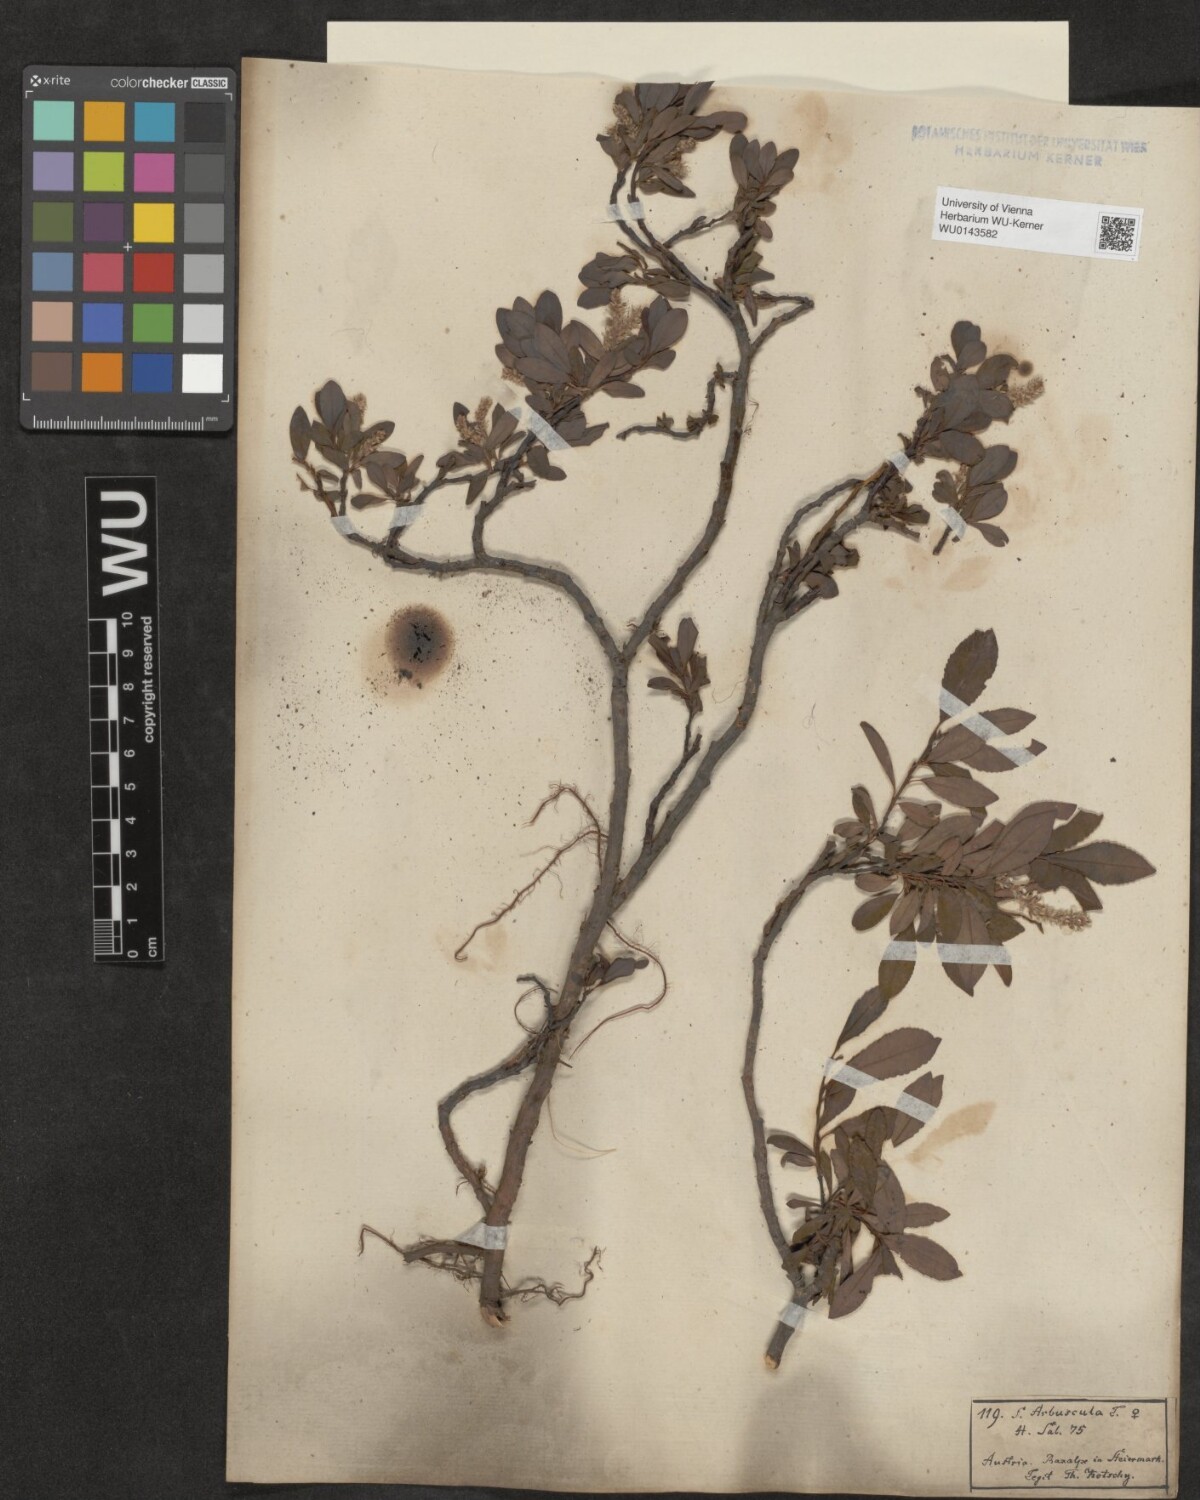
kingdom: Plantae
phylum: Tracheophyta
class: Magnoliopsida
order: Malpighiales
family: Salicaceae
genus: Salix
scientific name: Salix waldsteiniana
